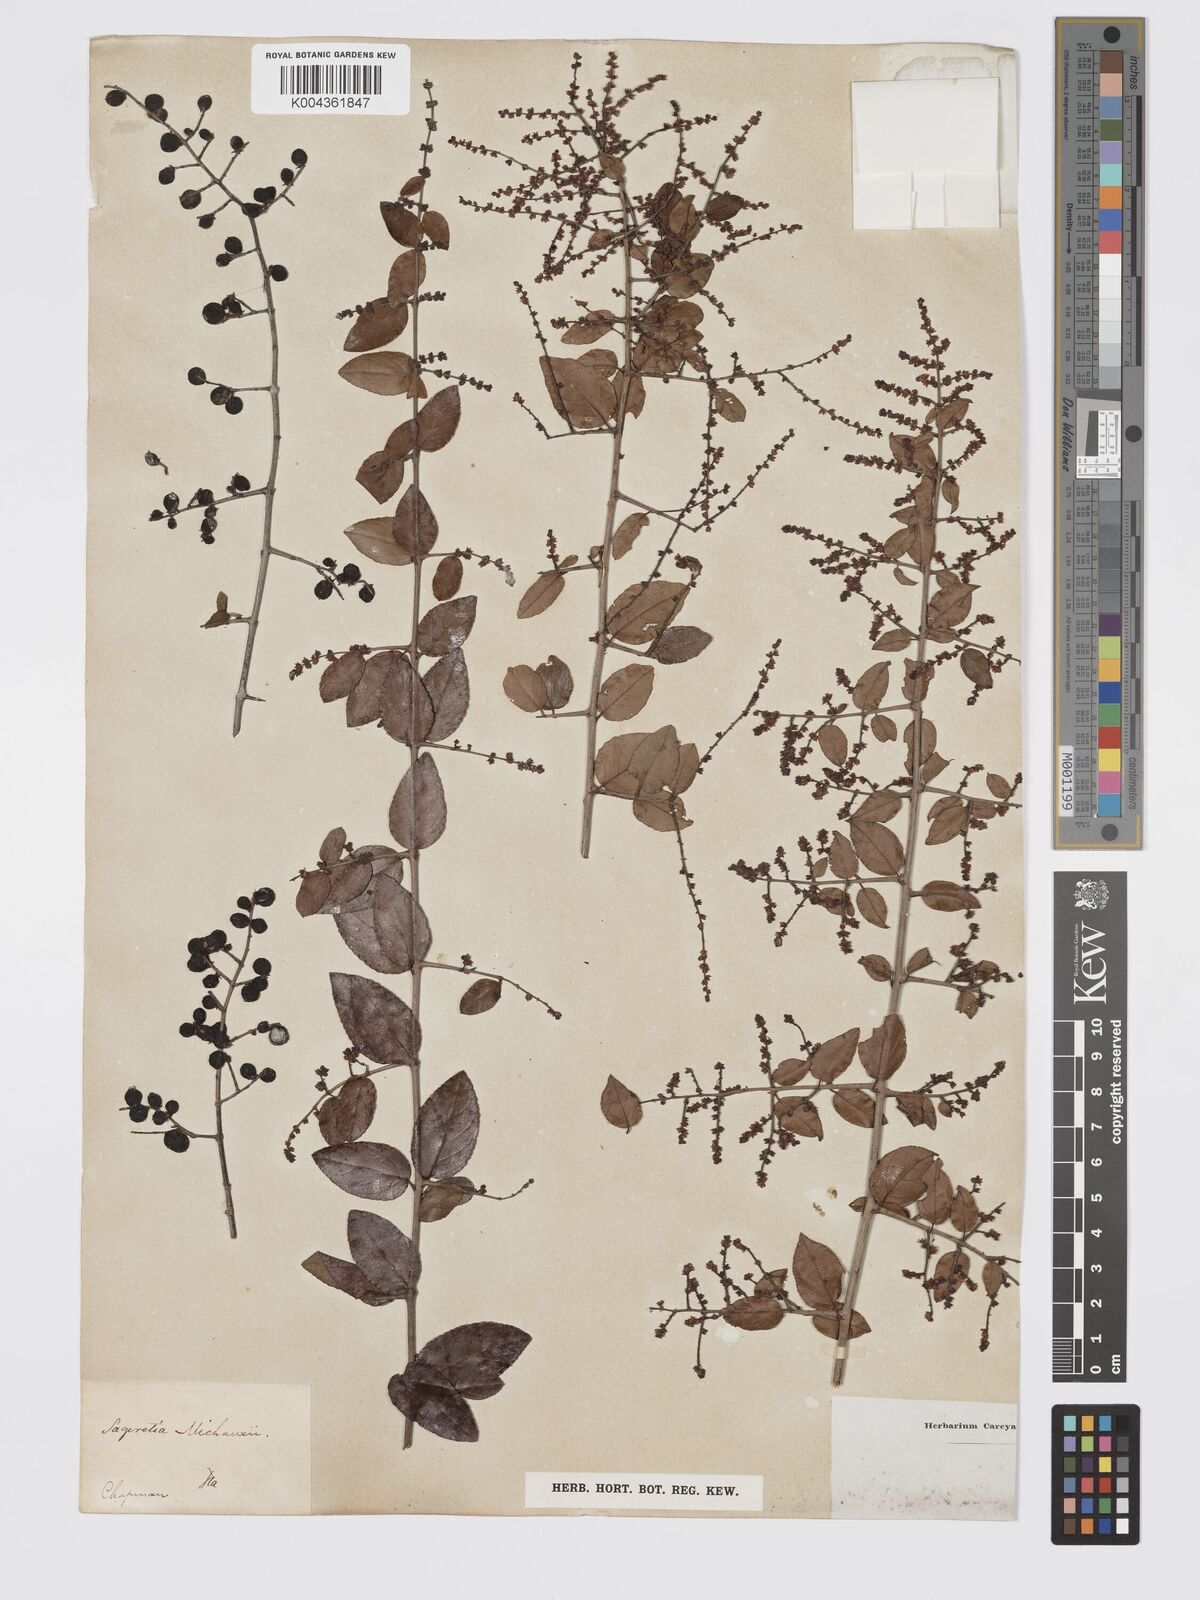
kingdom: Plantae
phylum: Tracheophyta
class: Magnoliopsida
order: Rosales
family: Rhamnaceae
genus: Sageretia
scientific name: Sageretia minutiflora
